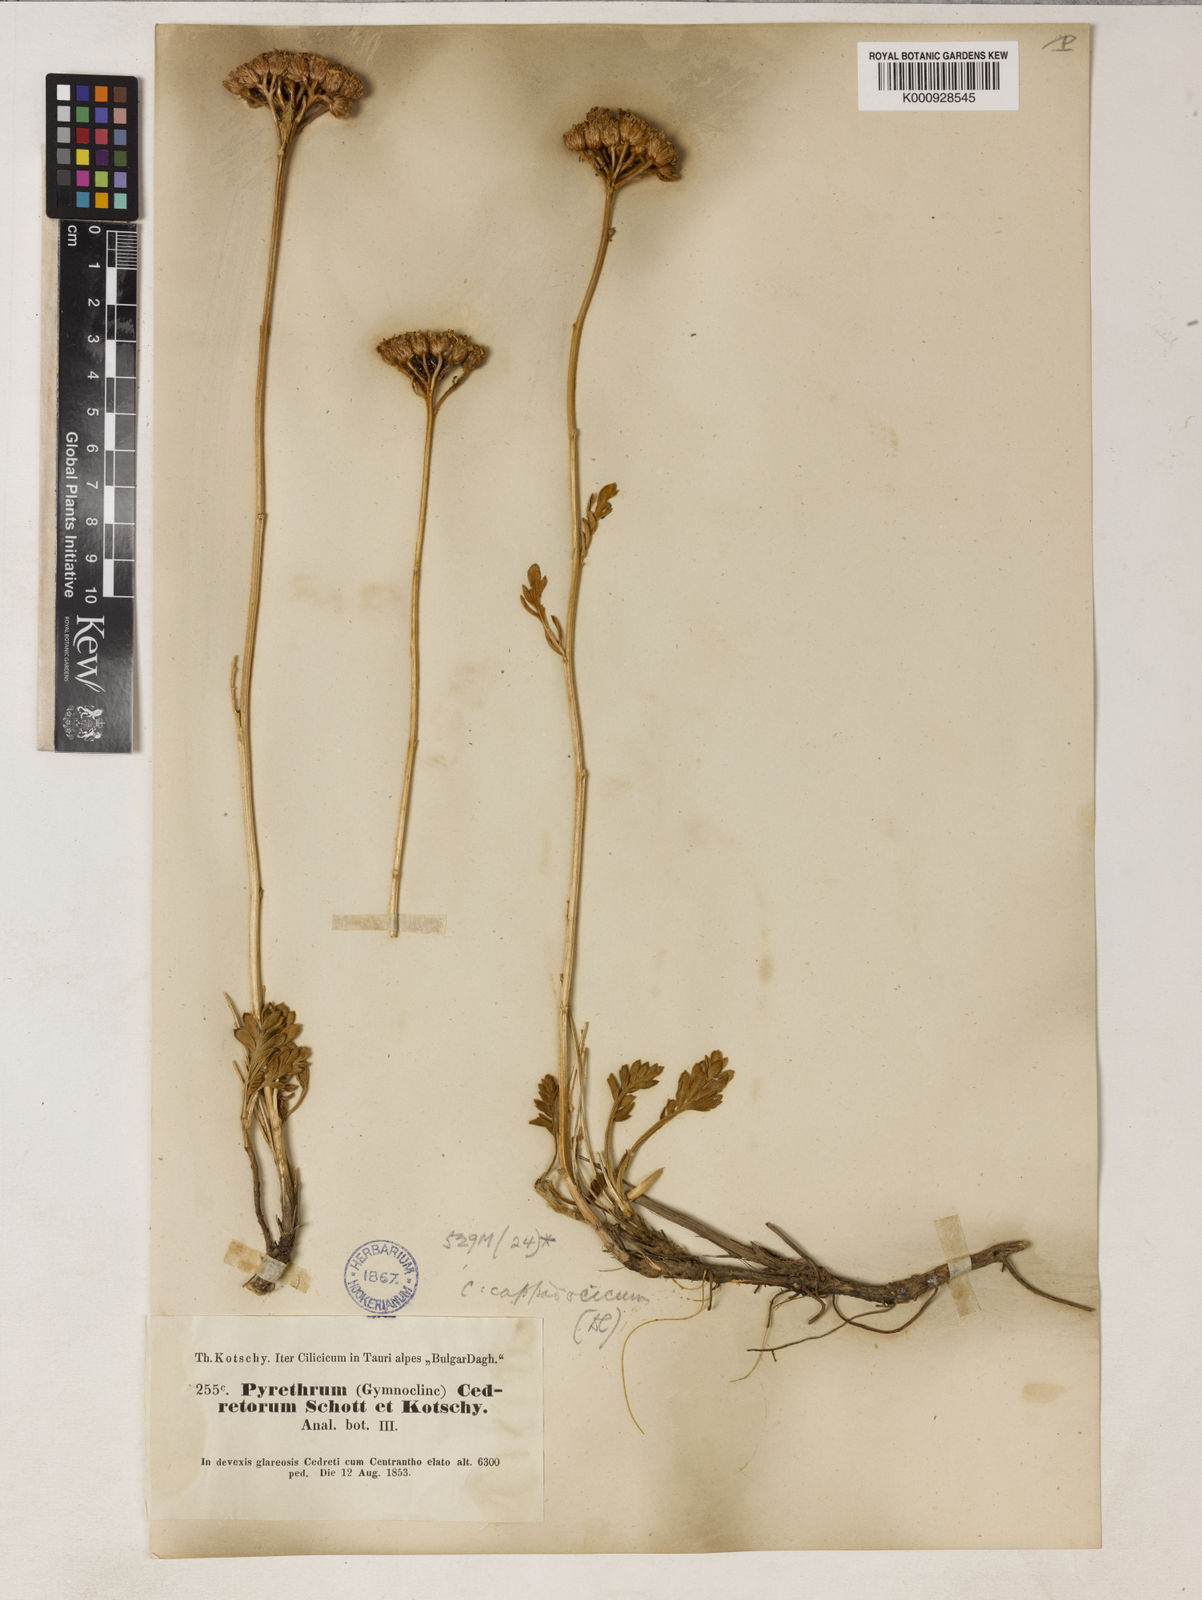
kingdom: Plantae
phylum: Tracheophyta
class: Magnoliopsida
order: Asterales
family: Asteraceae
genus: Tanacetum
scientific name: Tanacetum cappadocicum
